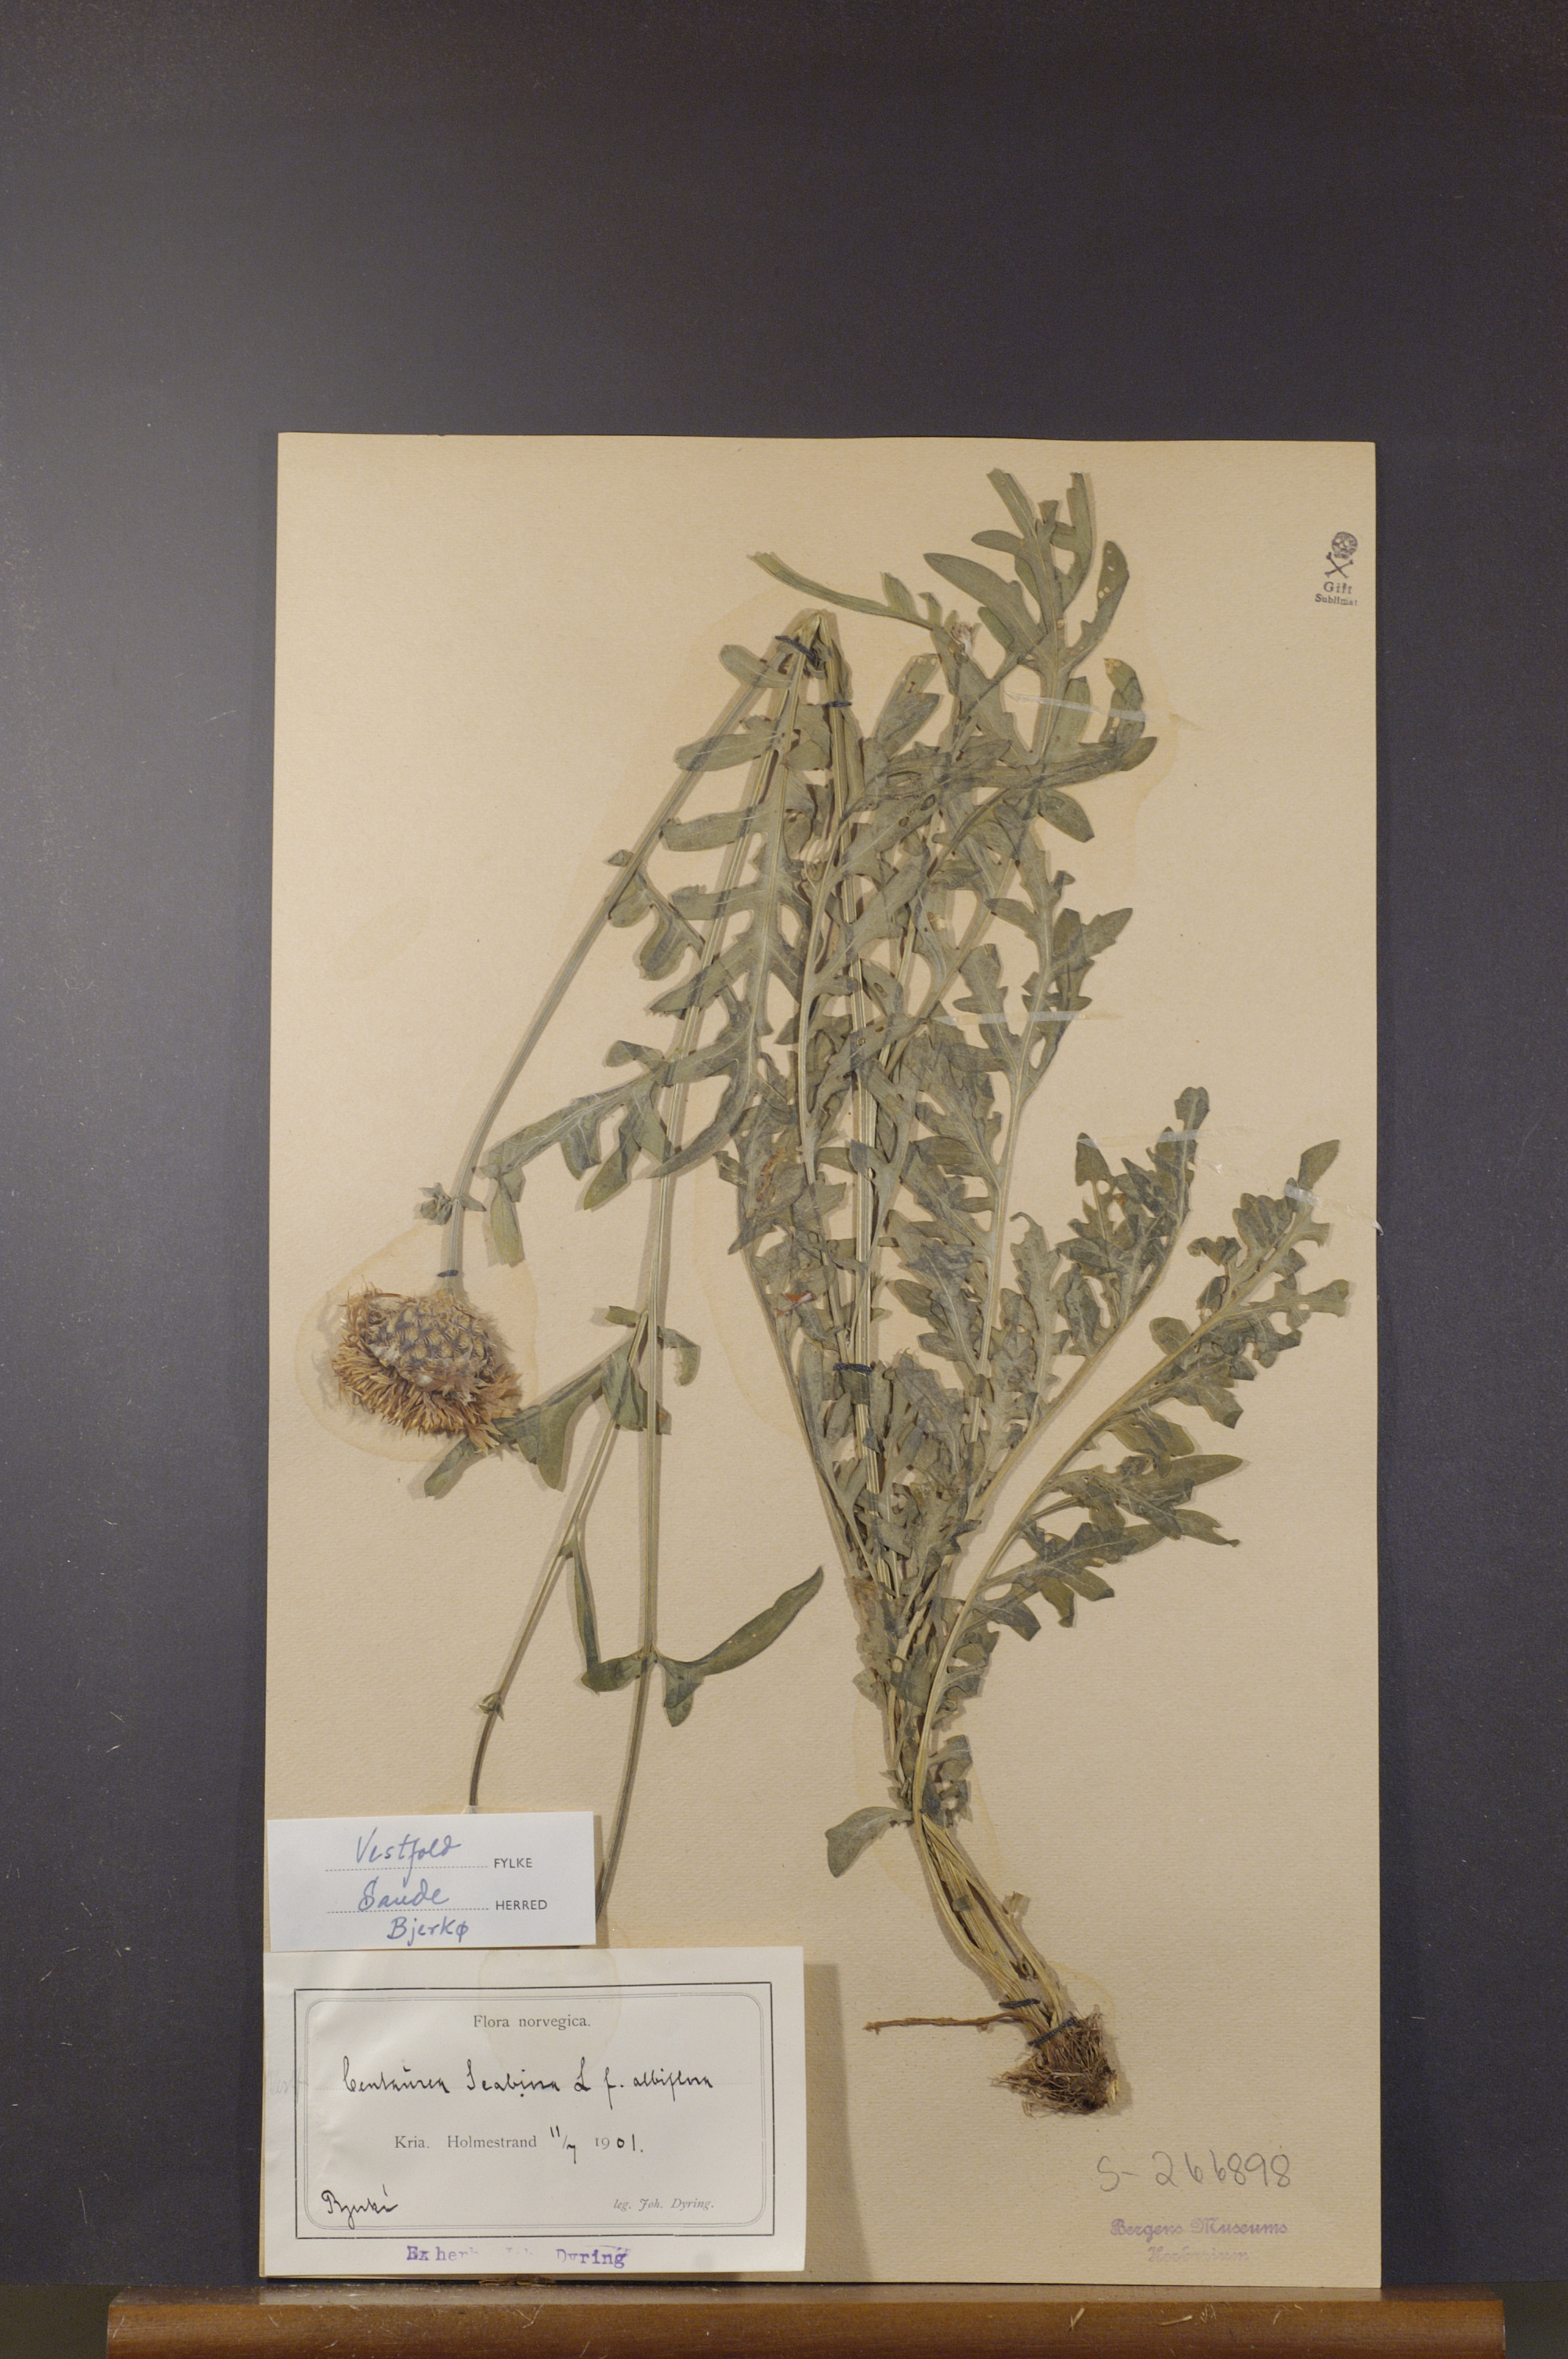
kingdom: Plantae
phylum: Tracheophyta
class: Magnoliopsida
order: Asterales
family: Asteraceae
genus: Centaurea
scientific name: Centaurea scabiosa
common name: Greater knapweed
